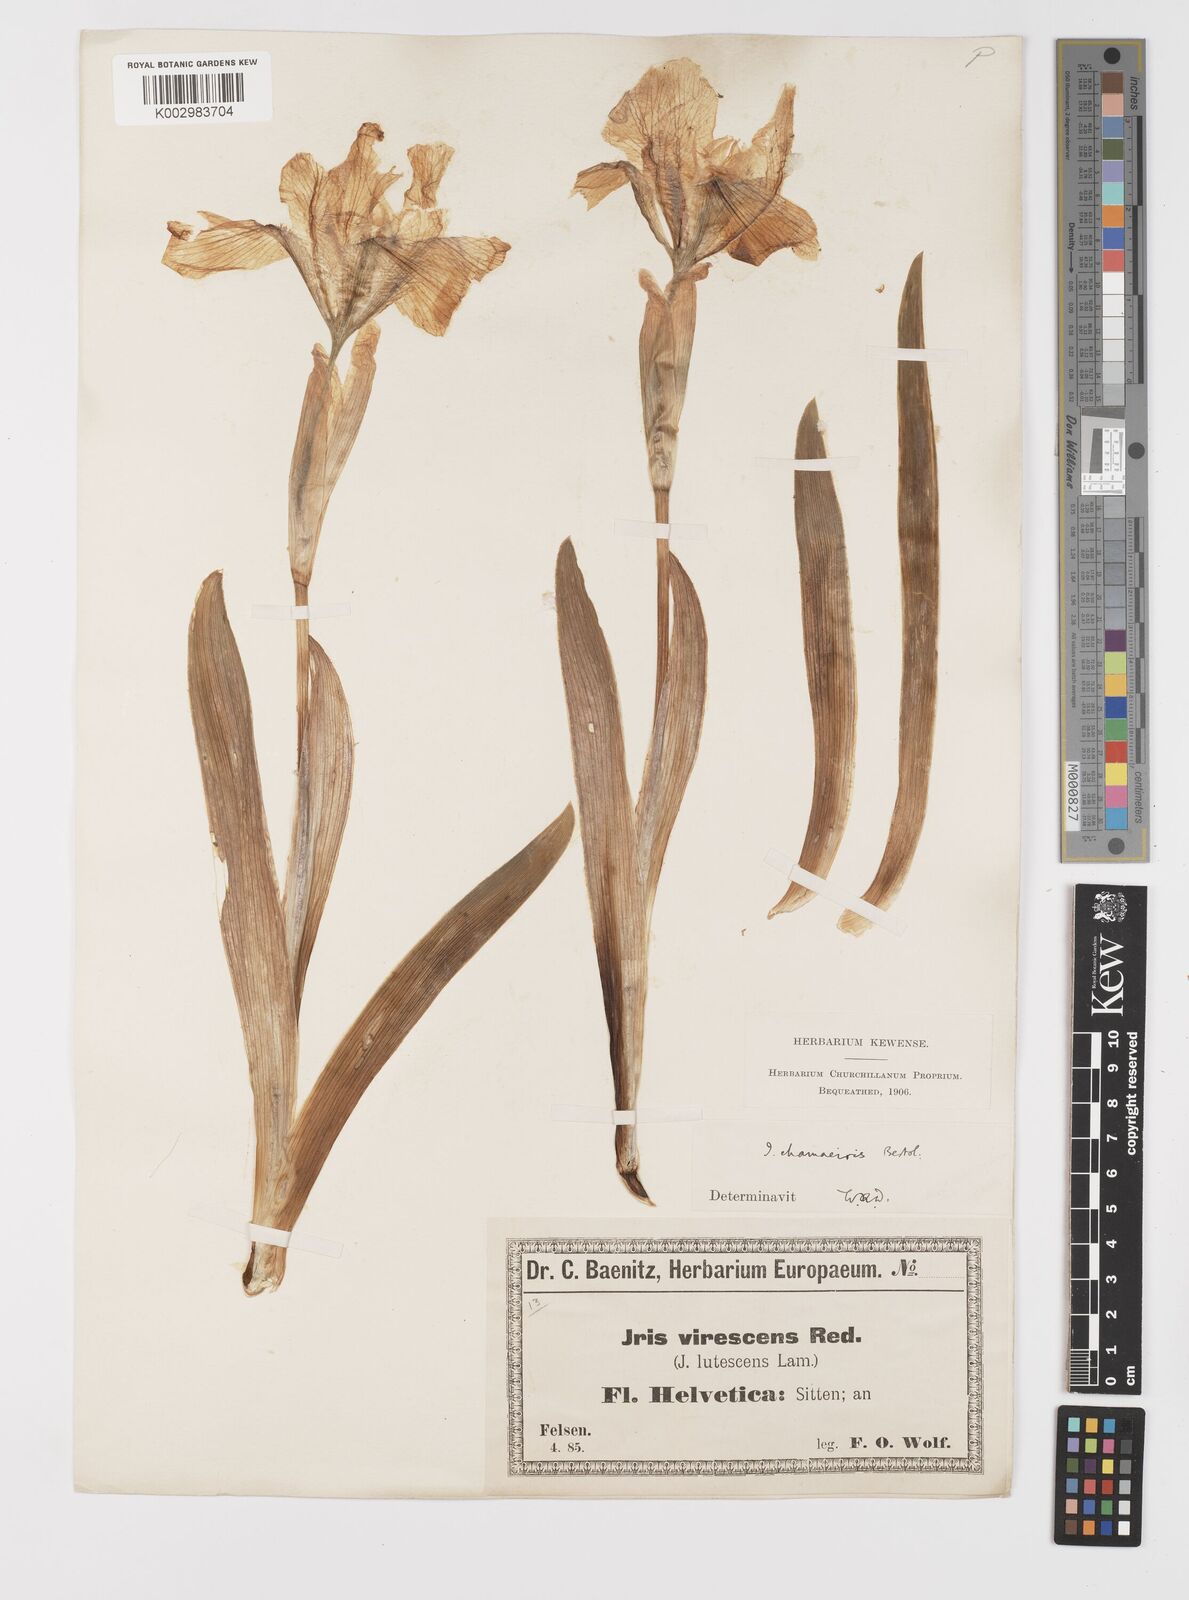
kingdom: Plantae
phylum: Tracheophyta
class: Liliopsida
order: Asparagales
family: Iridaceae
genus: Iris
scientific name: Iris lutescens
